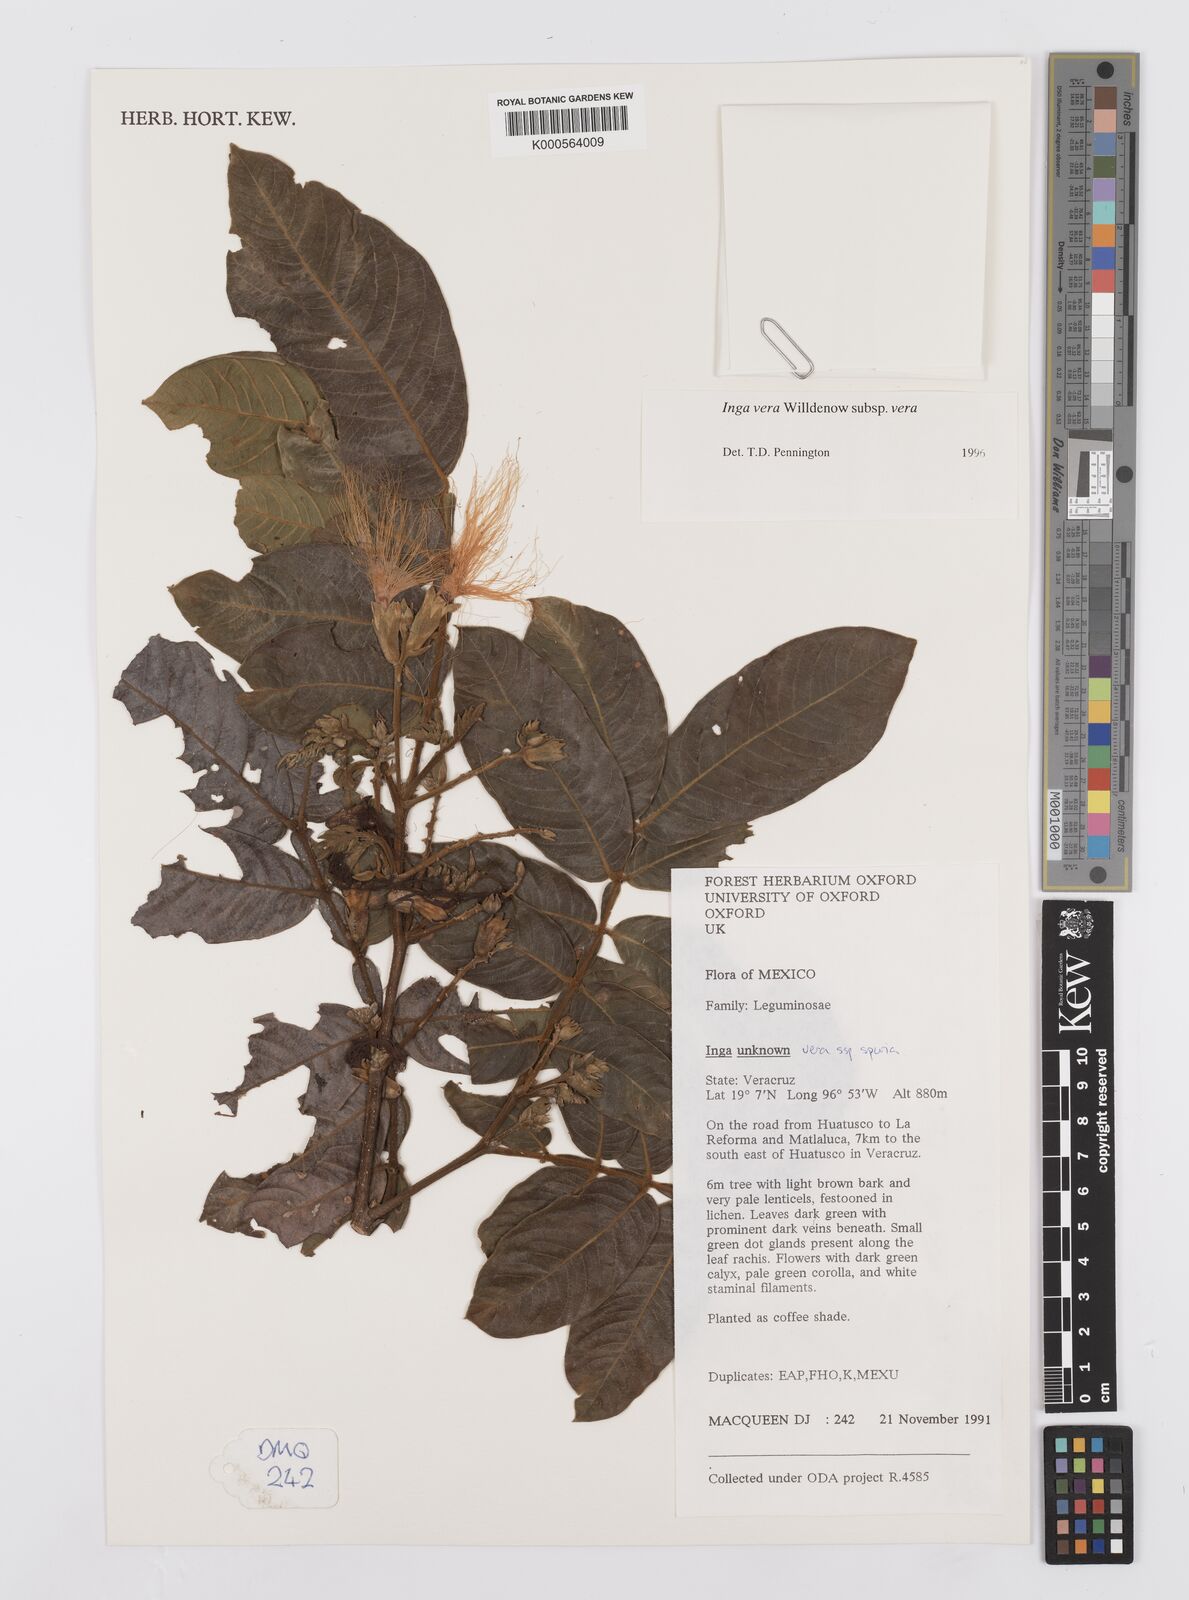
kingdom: Plantae
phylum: Tracheophyta
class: Magnoliopsida
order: Fabales
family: Fabaceae
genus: Inga
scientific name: Inga vera
